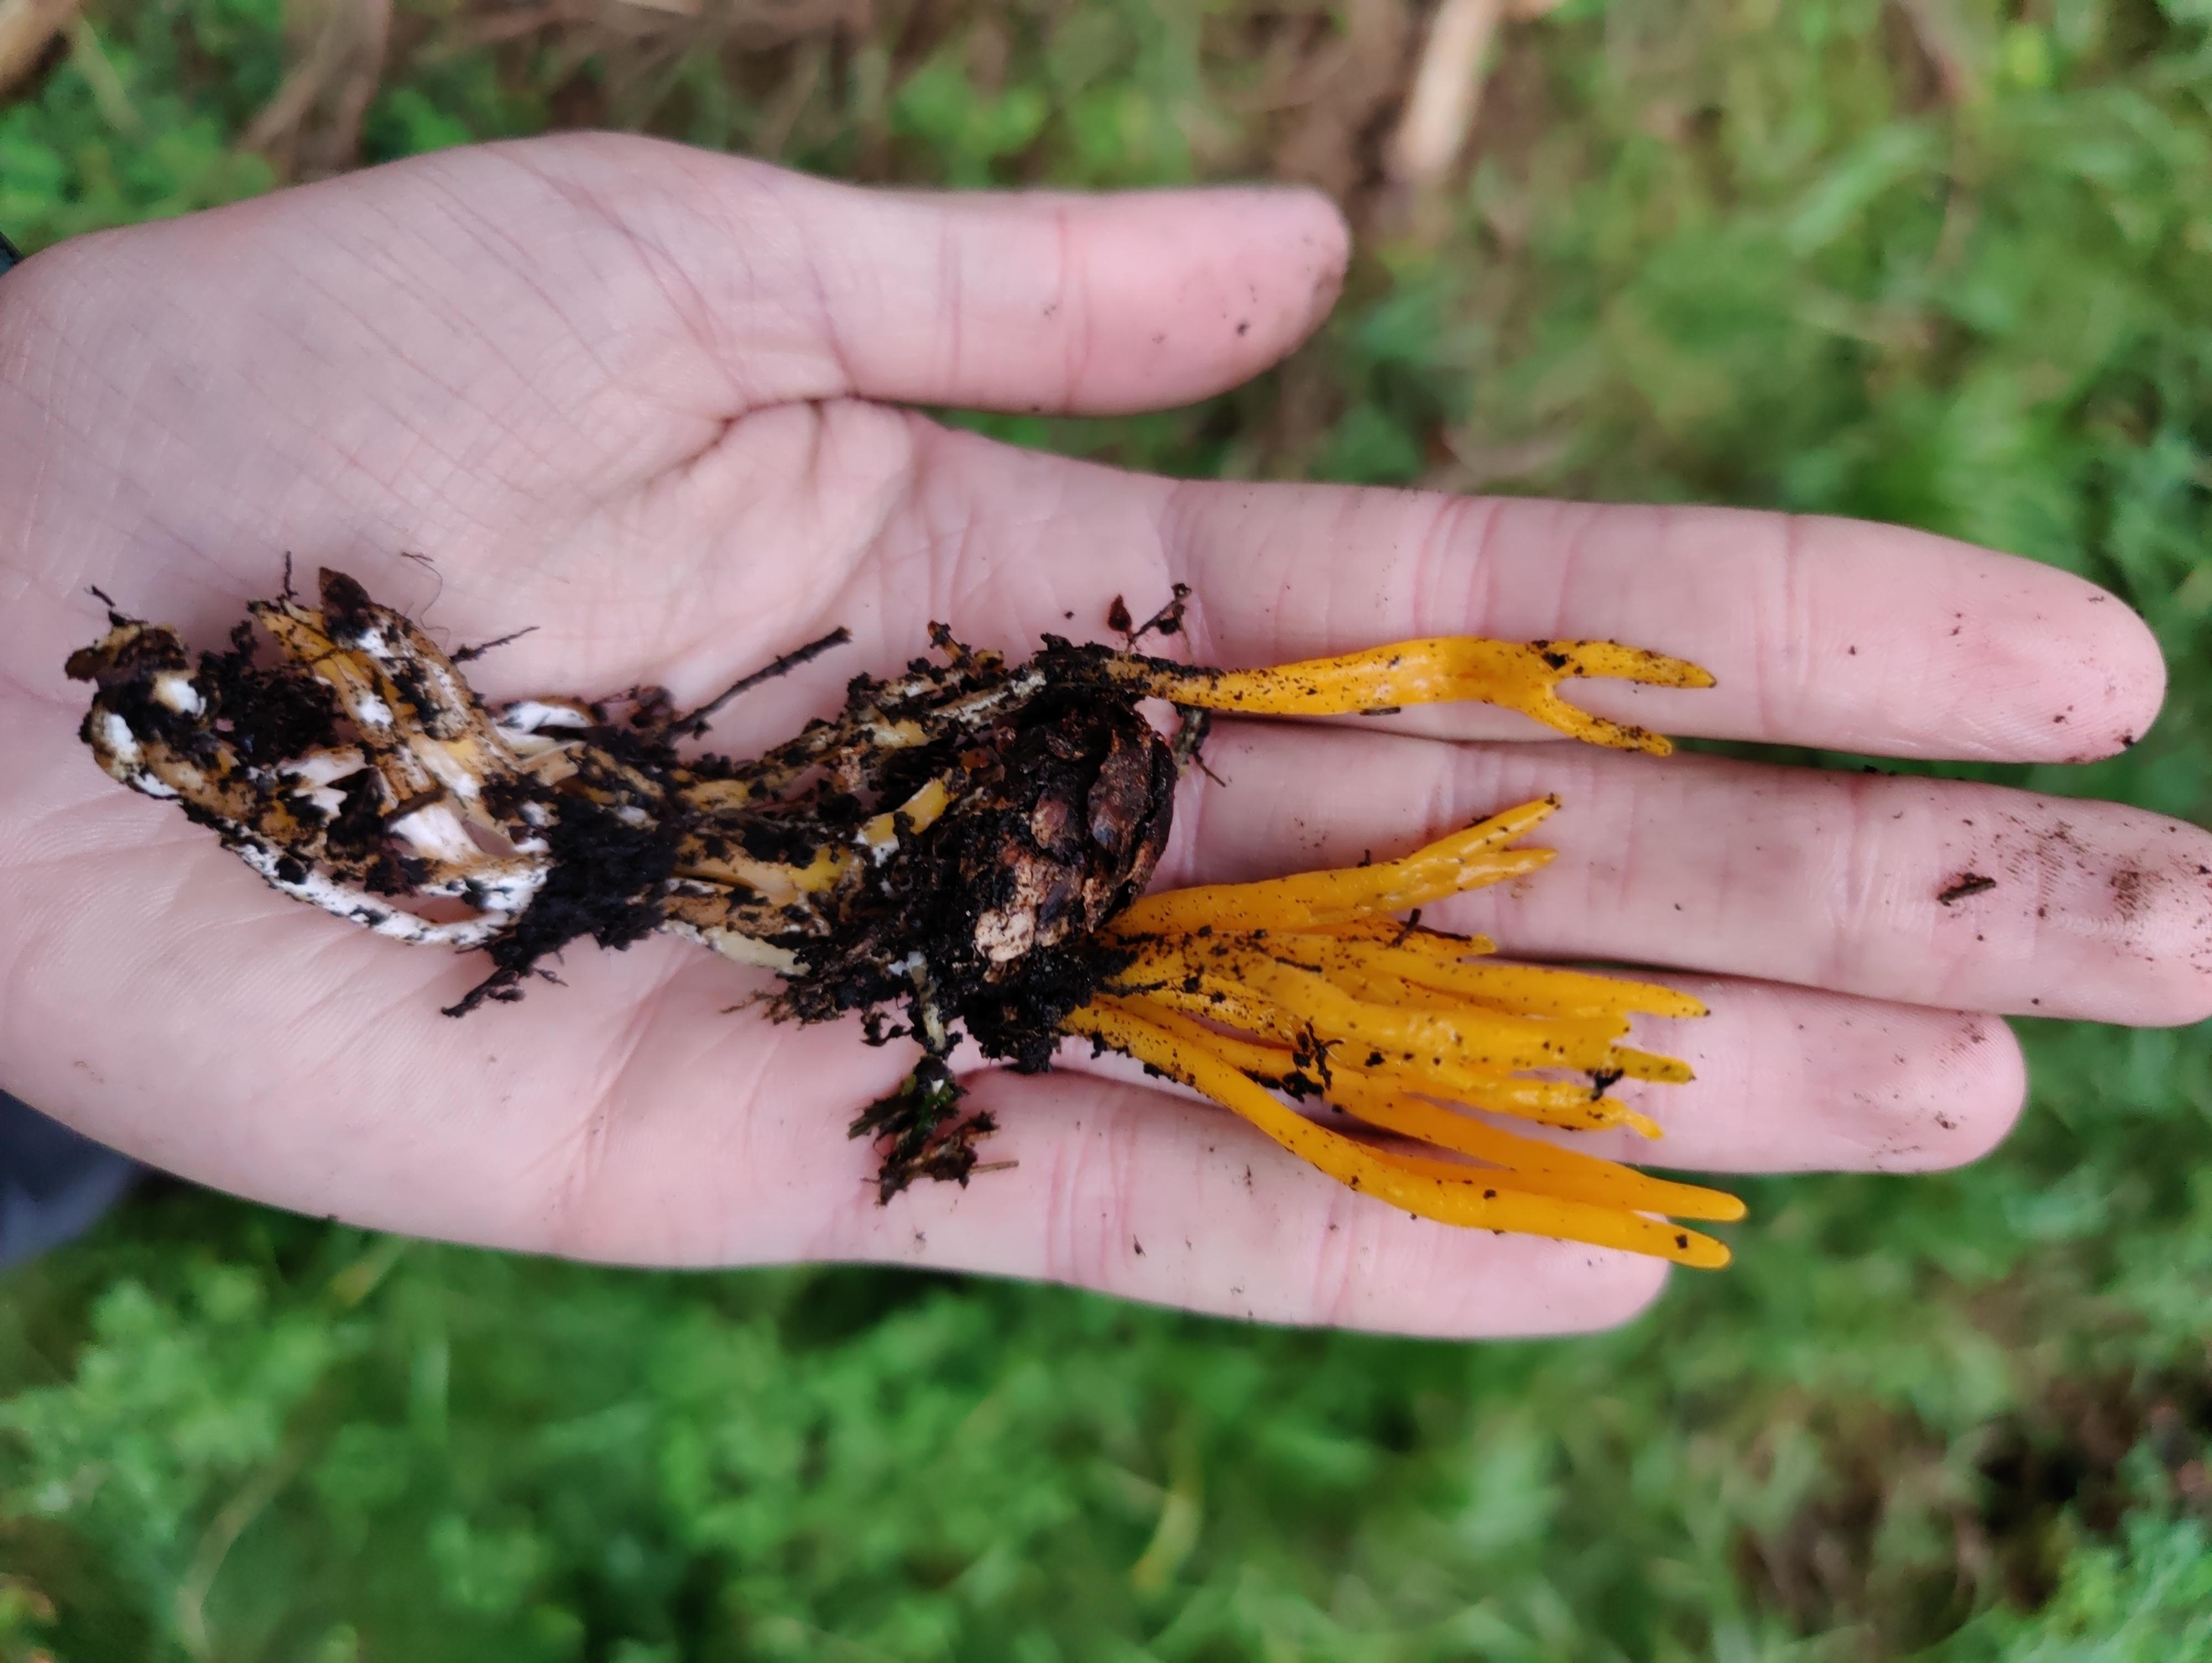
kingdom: Fungi
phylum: Basidiomycota
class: Dacrymycetes
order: Dacrymycetales
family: Dacrymycetaceae
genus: Calocera
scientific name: Calocera viscosa
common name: almindelig guldgaffel
